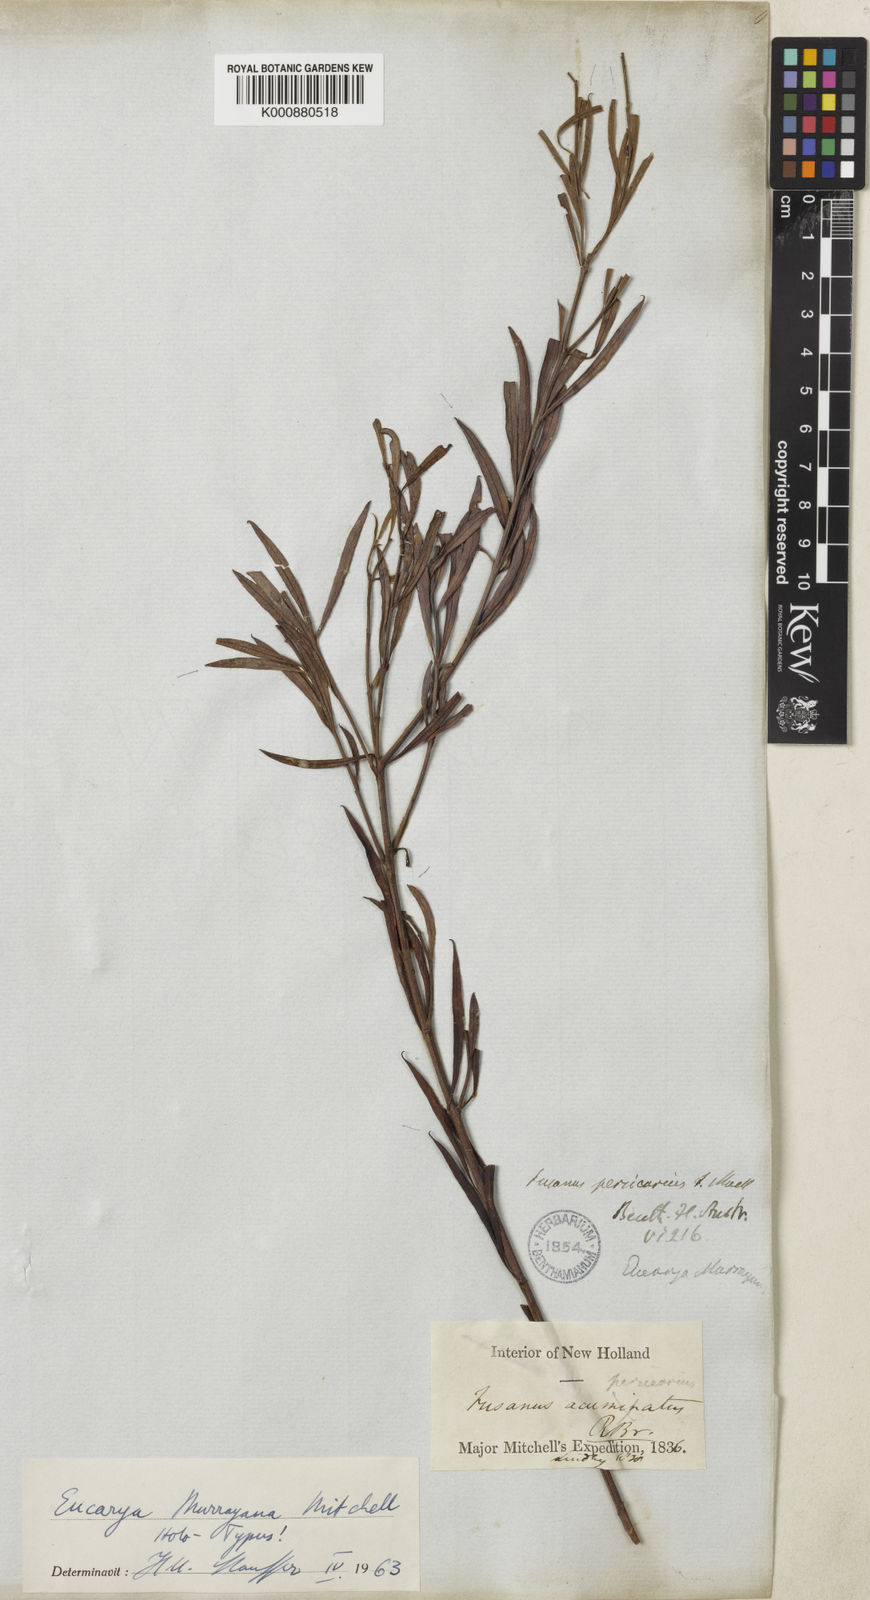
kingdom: Plantae
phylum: Tracheophyta
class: Magnoliopsida
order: Santalales
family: Santalaceae
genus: Santalum
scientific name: Santalum murrayanum
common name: Bitter quandong
